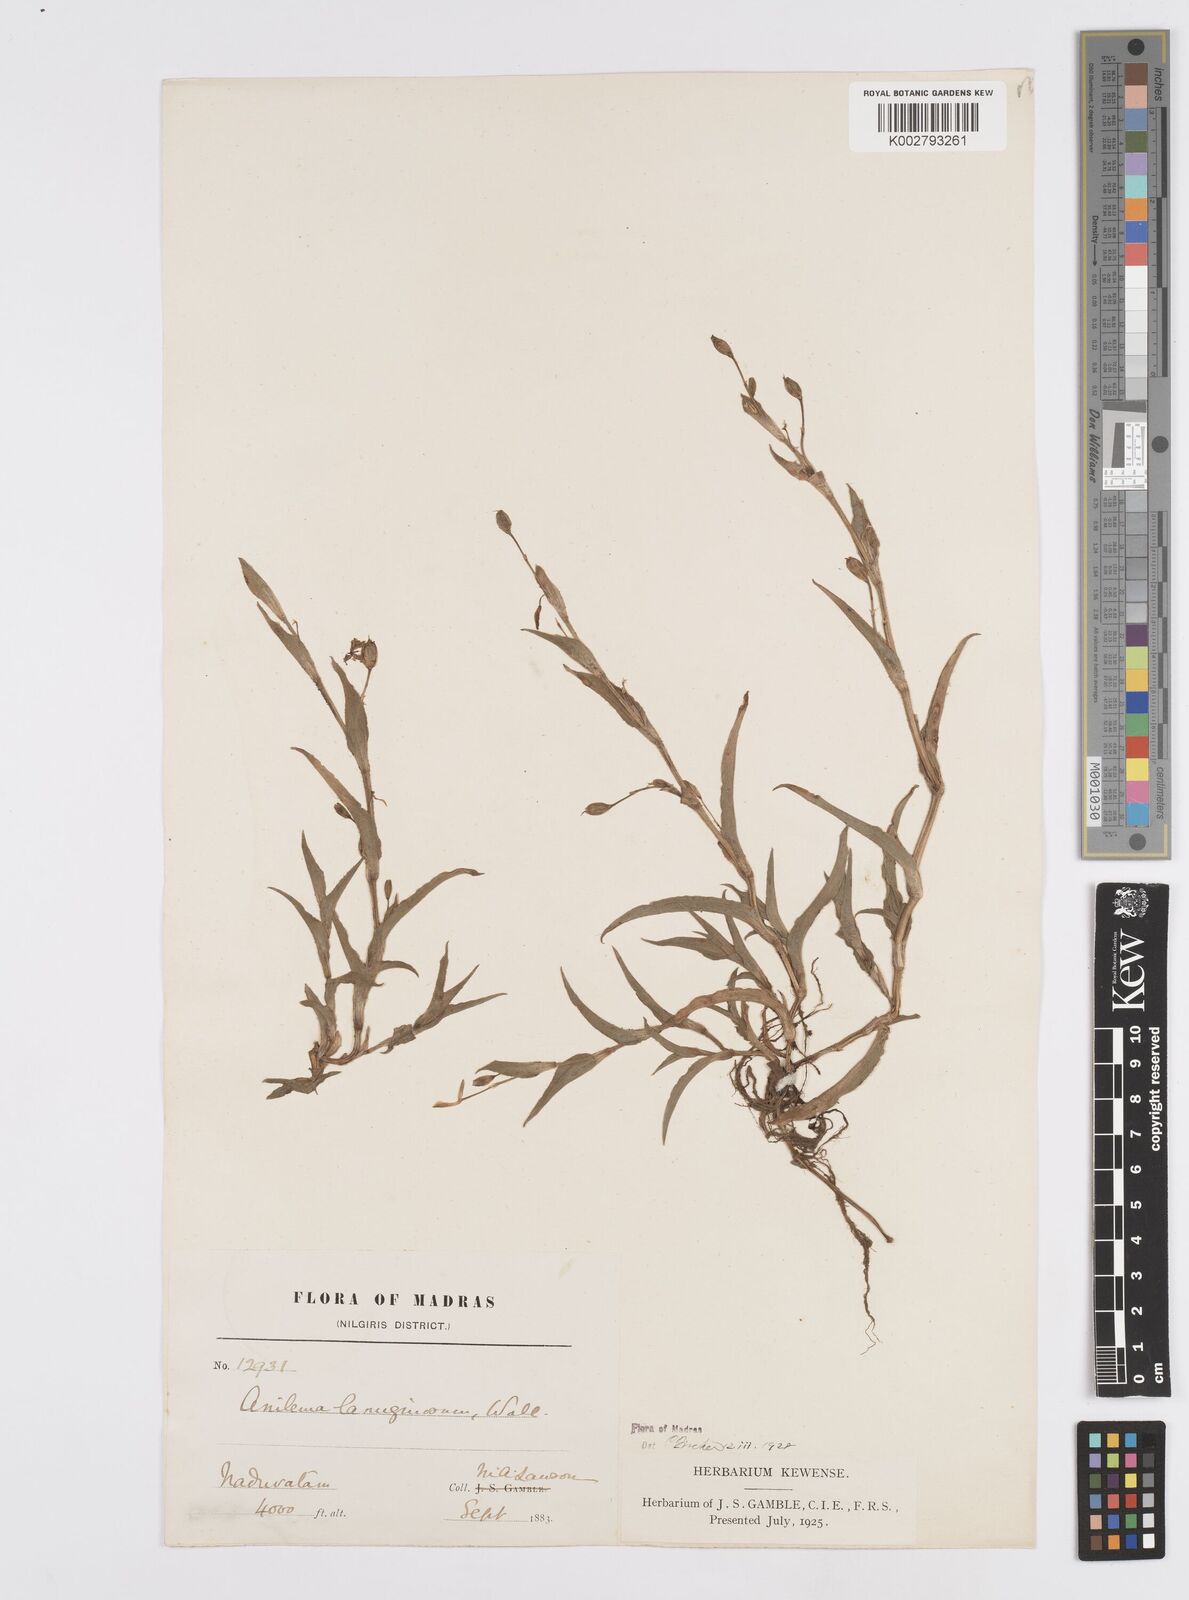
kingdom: Plantae
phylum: Tracheophyta
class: Liliopsida
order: Commelinales
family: Commelinaceae
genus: Murdannia
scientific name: Murdannia lanuginosa
